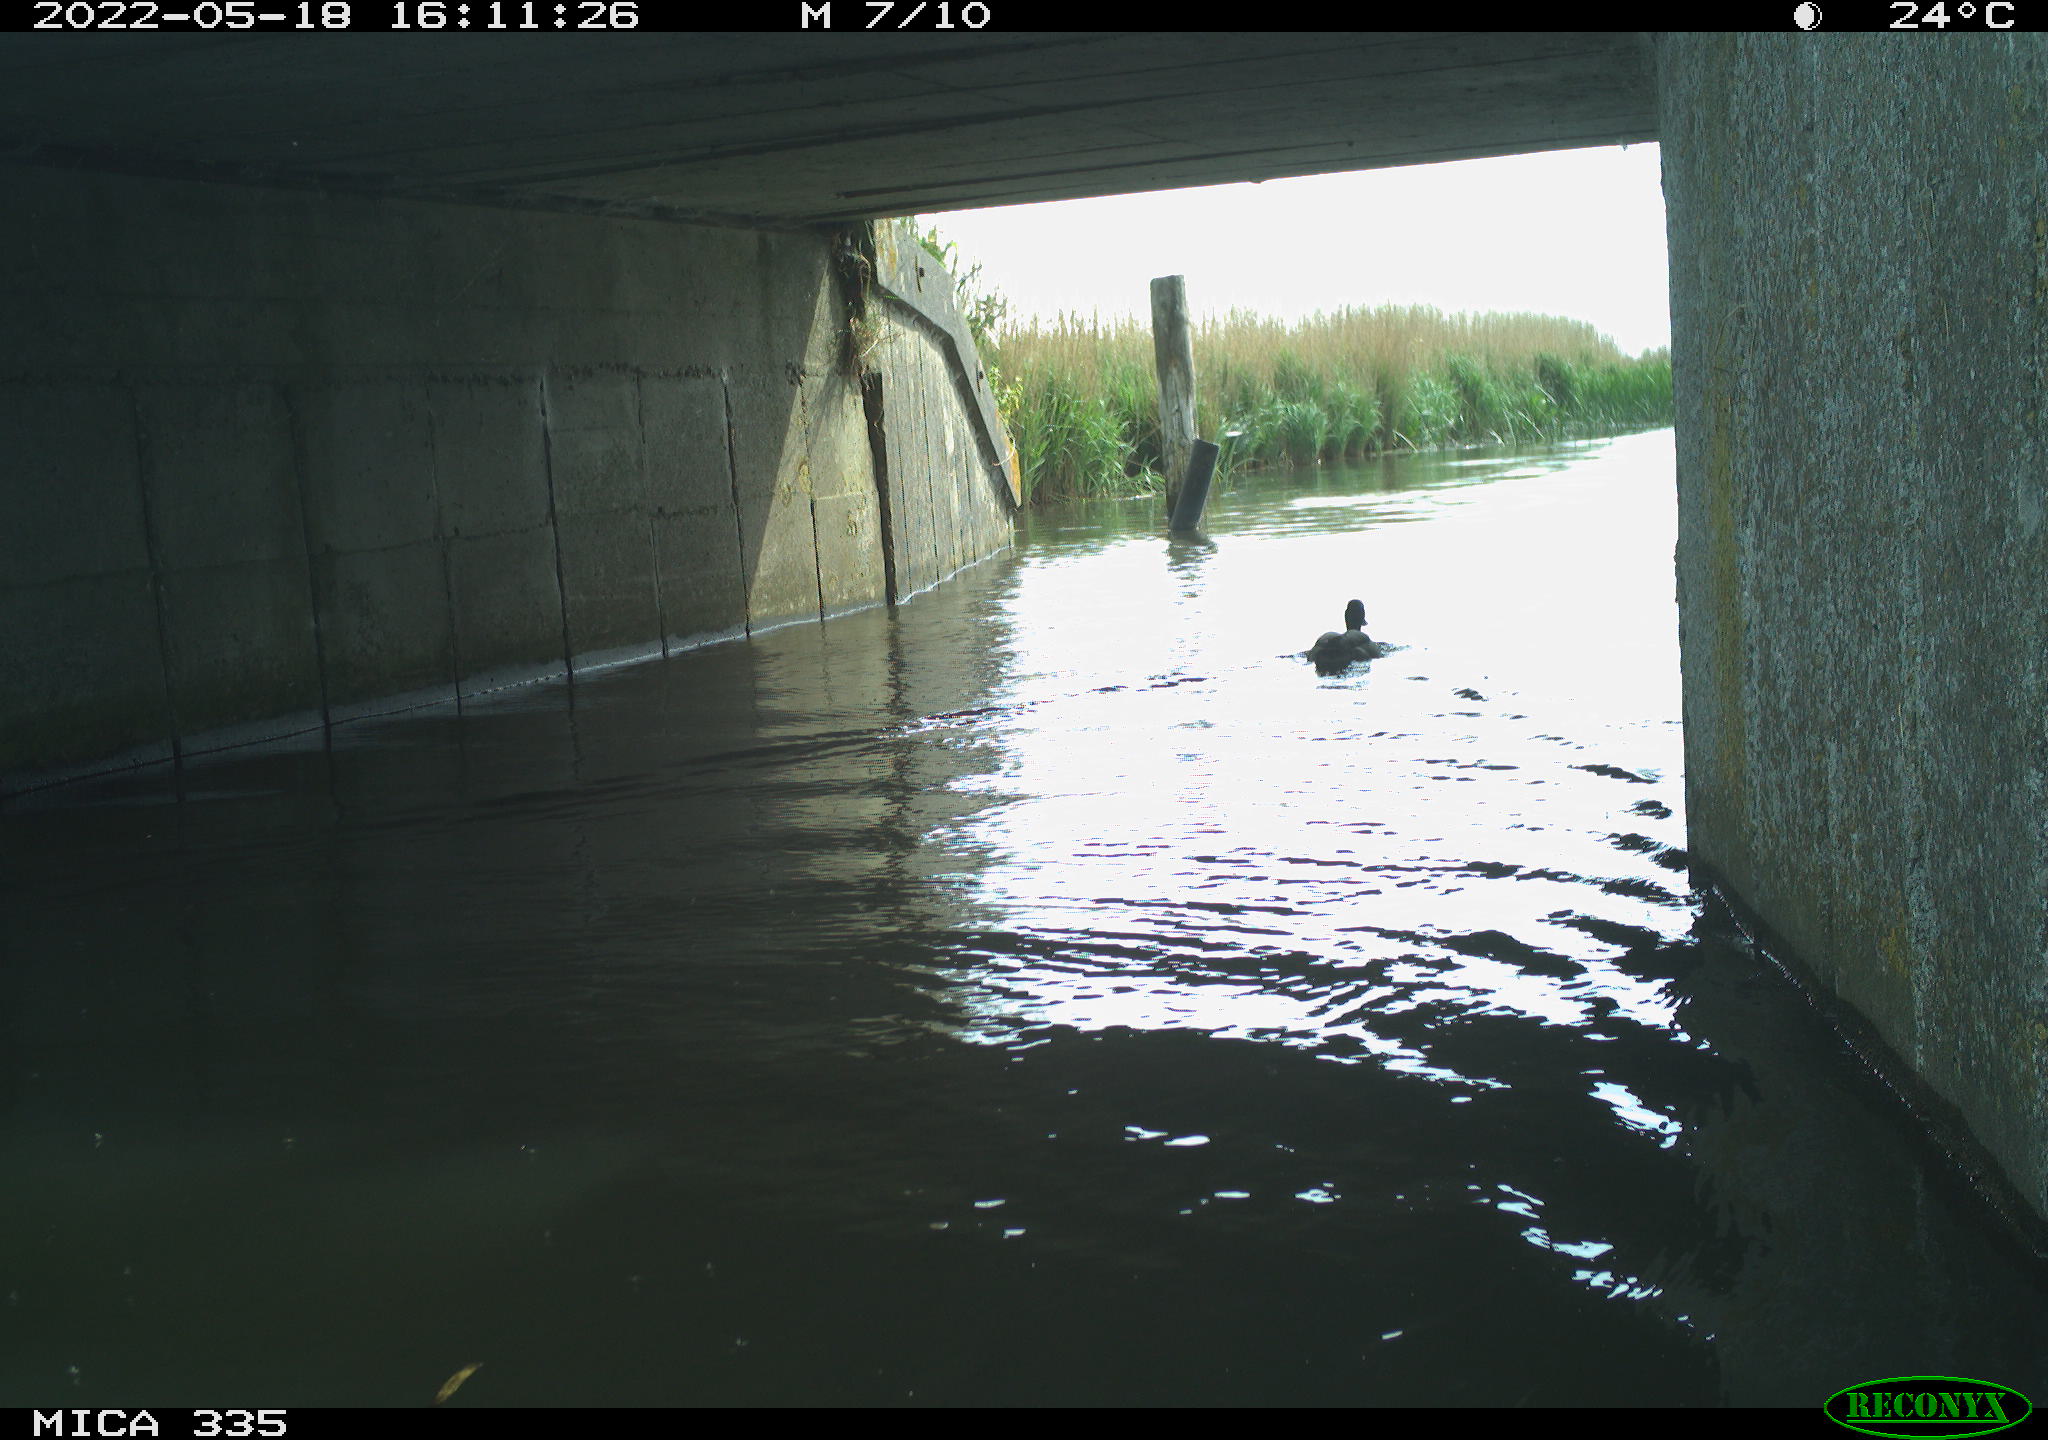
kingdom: Animalia
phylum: Chordata
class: Aves
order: Anseriformes
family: Anatidae
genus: Anas
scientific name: Anas platyrhynchos
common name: Mallard
